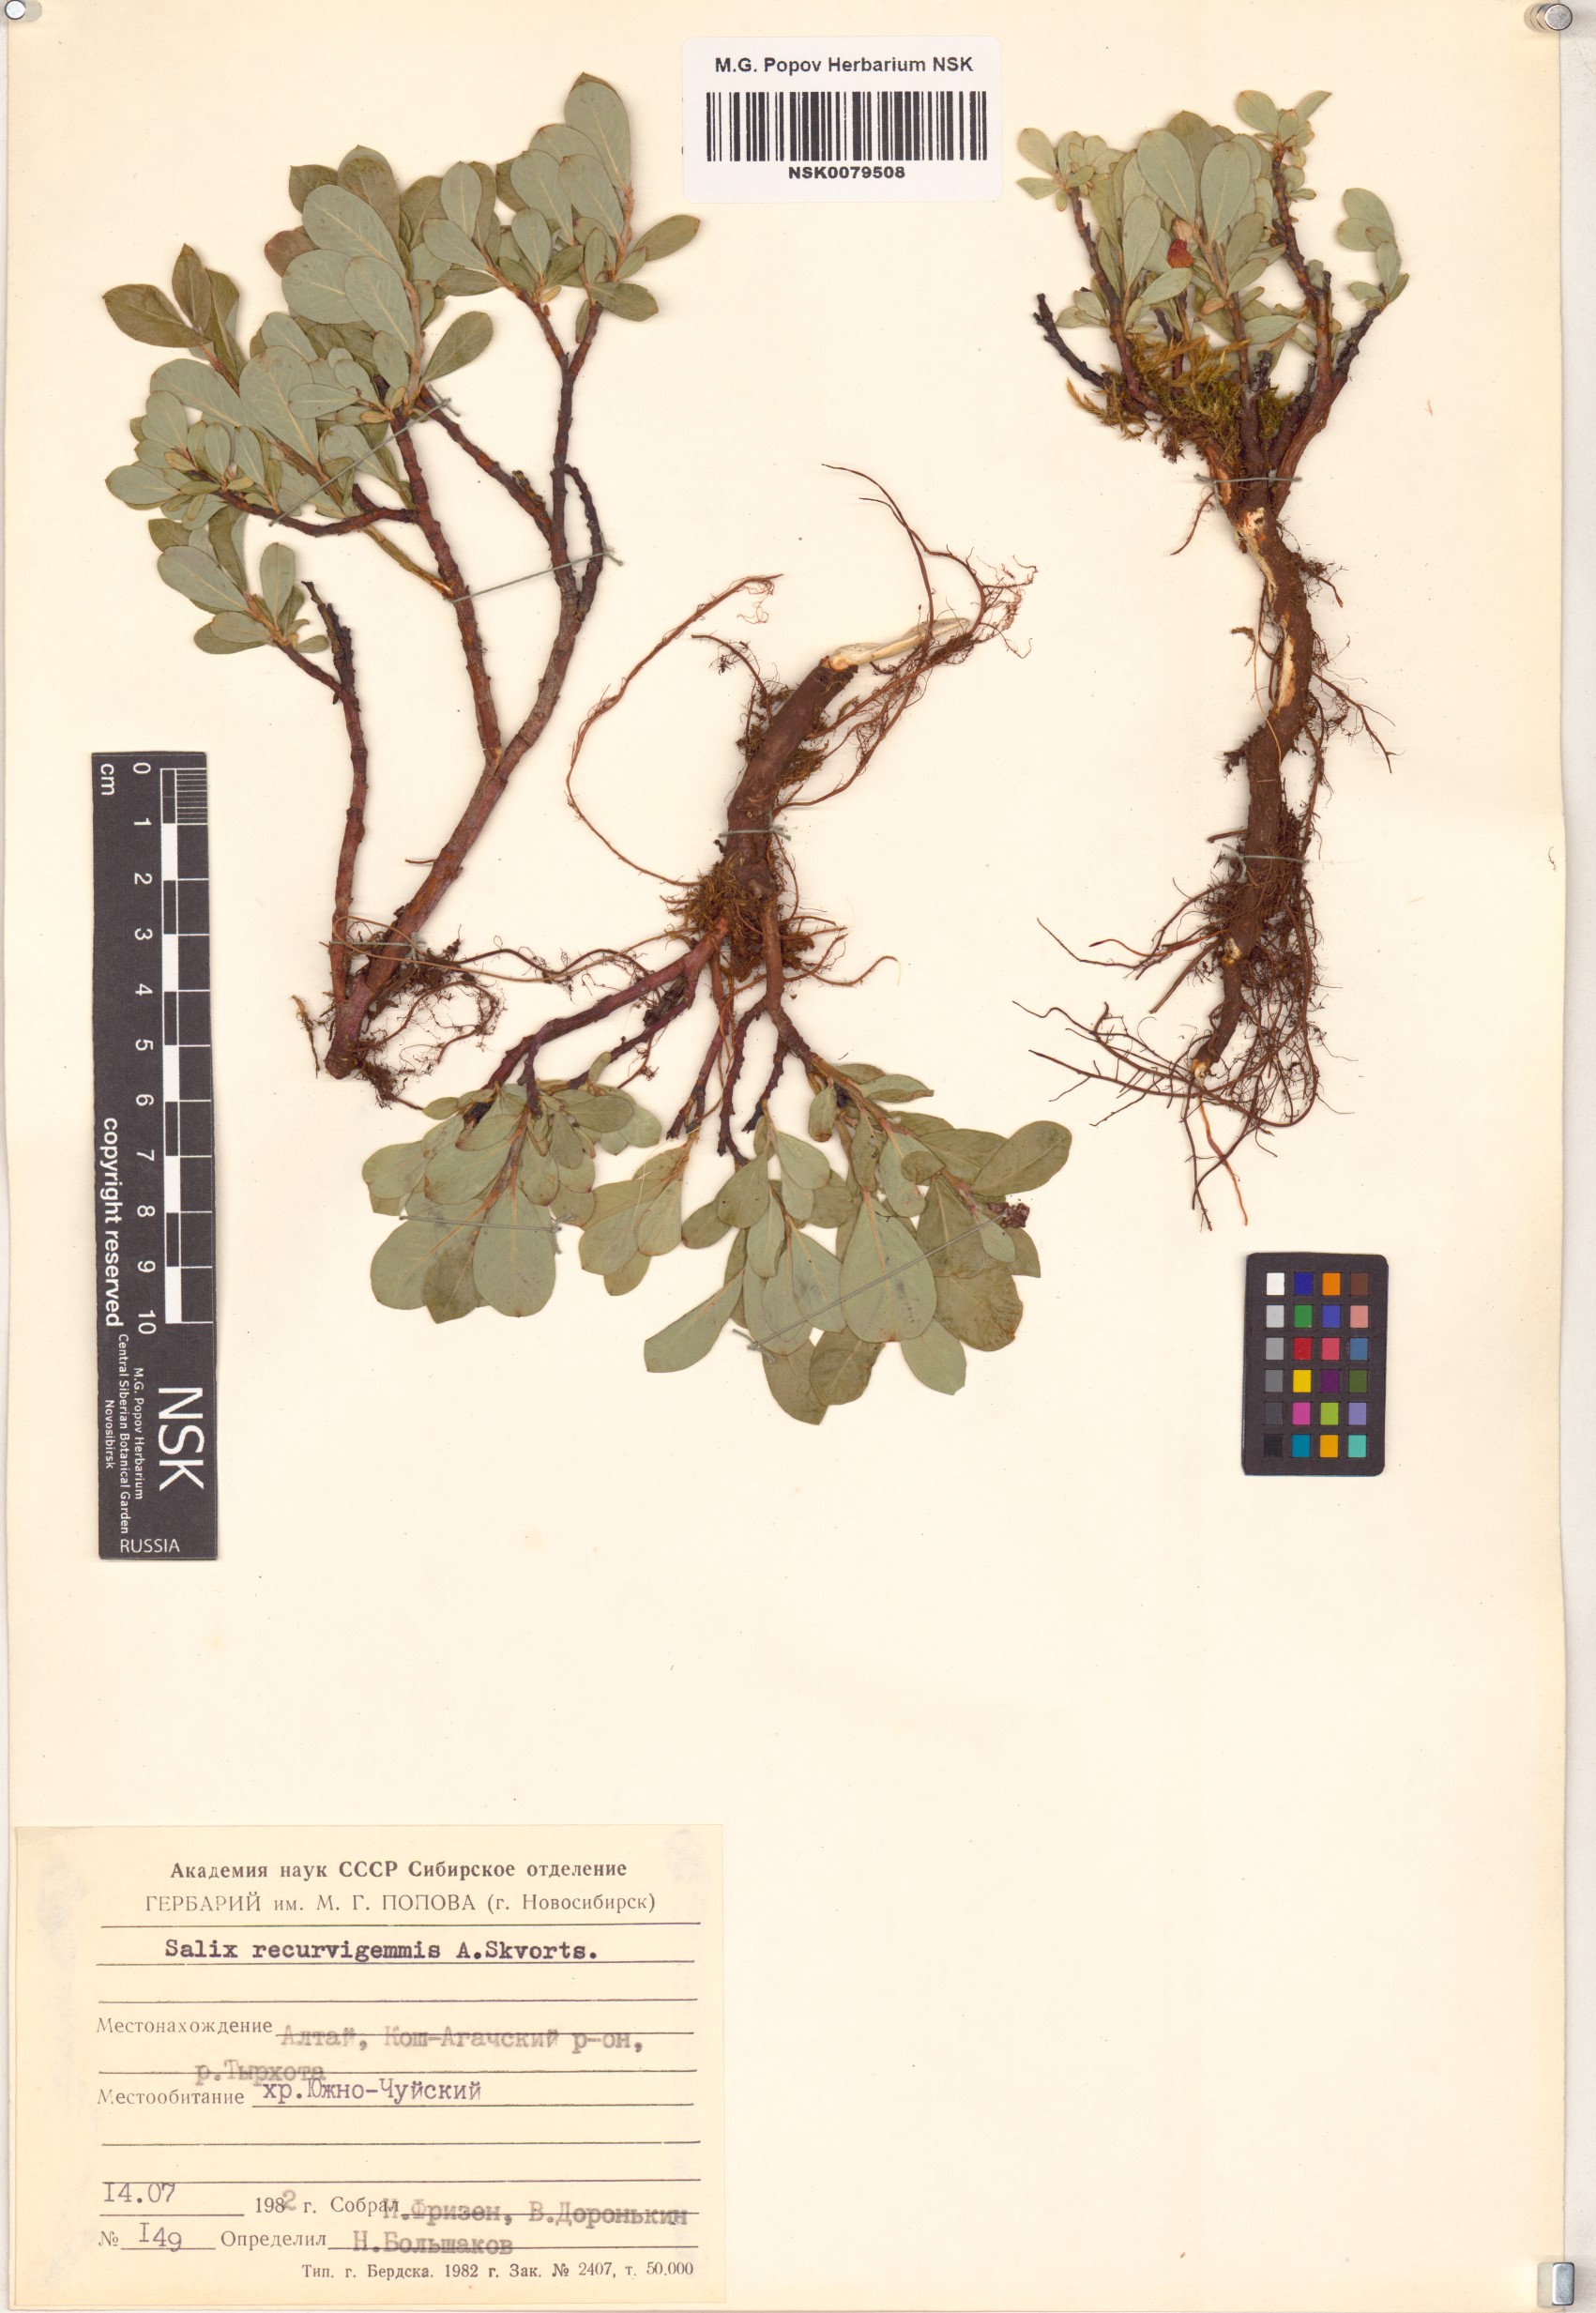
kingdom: Plantae
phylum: Tracheophyta
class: Magnoliopsida
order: Malpighiales
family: Salicaceae
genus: Salix
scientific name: Salix recurvigemmata
